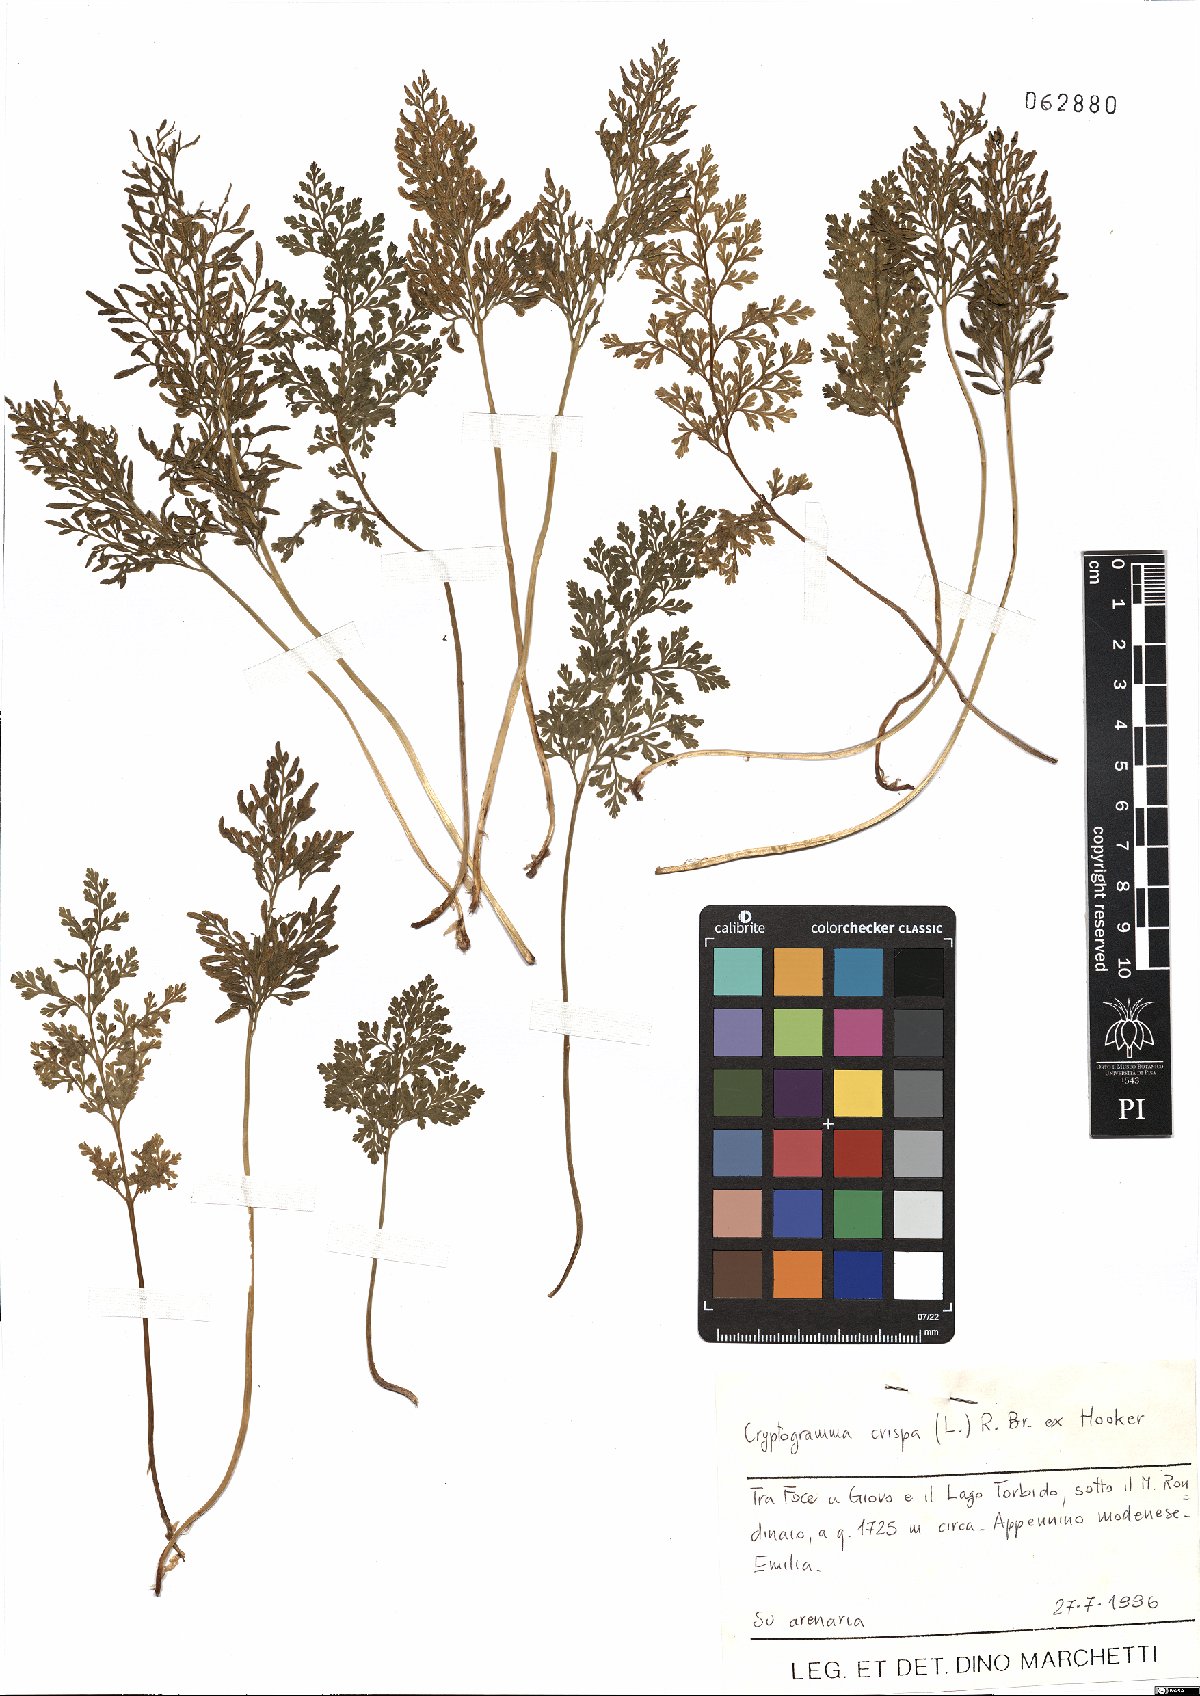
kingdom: Plantae
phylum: Tracheophyta
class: Polypodiopsida
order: Polypodiales
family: Pteridaceae
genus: Cryptogramma
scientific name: Cryptogramma crispa
